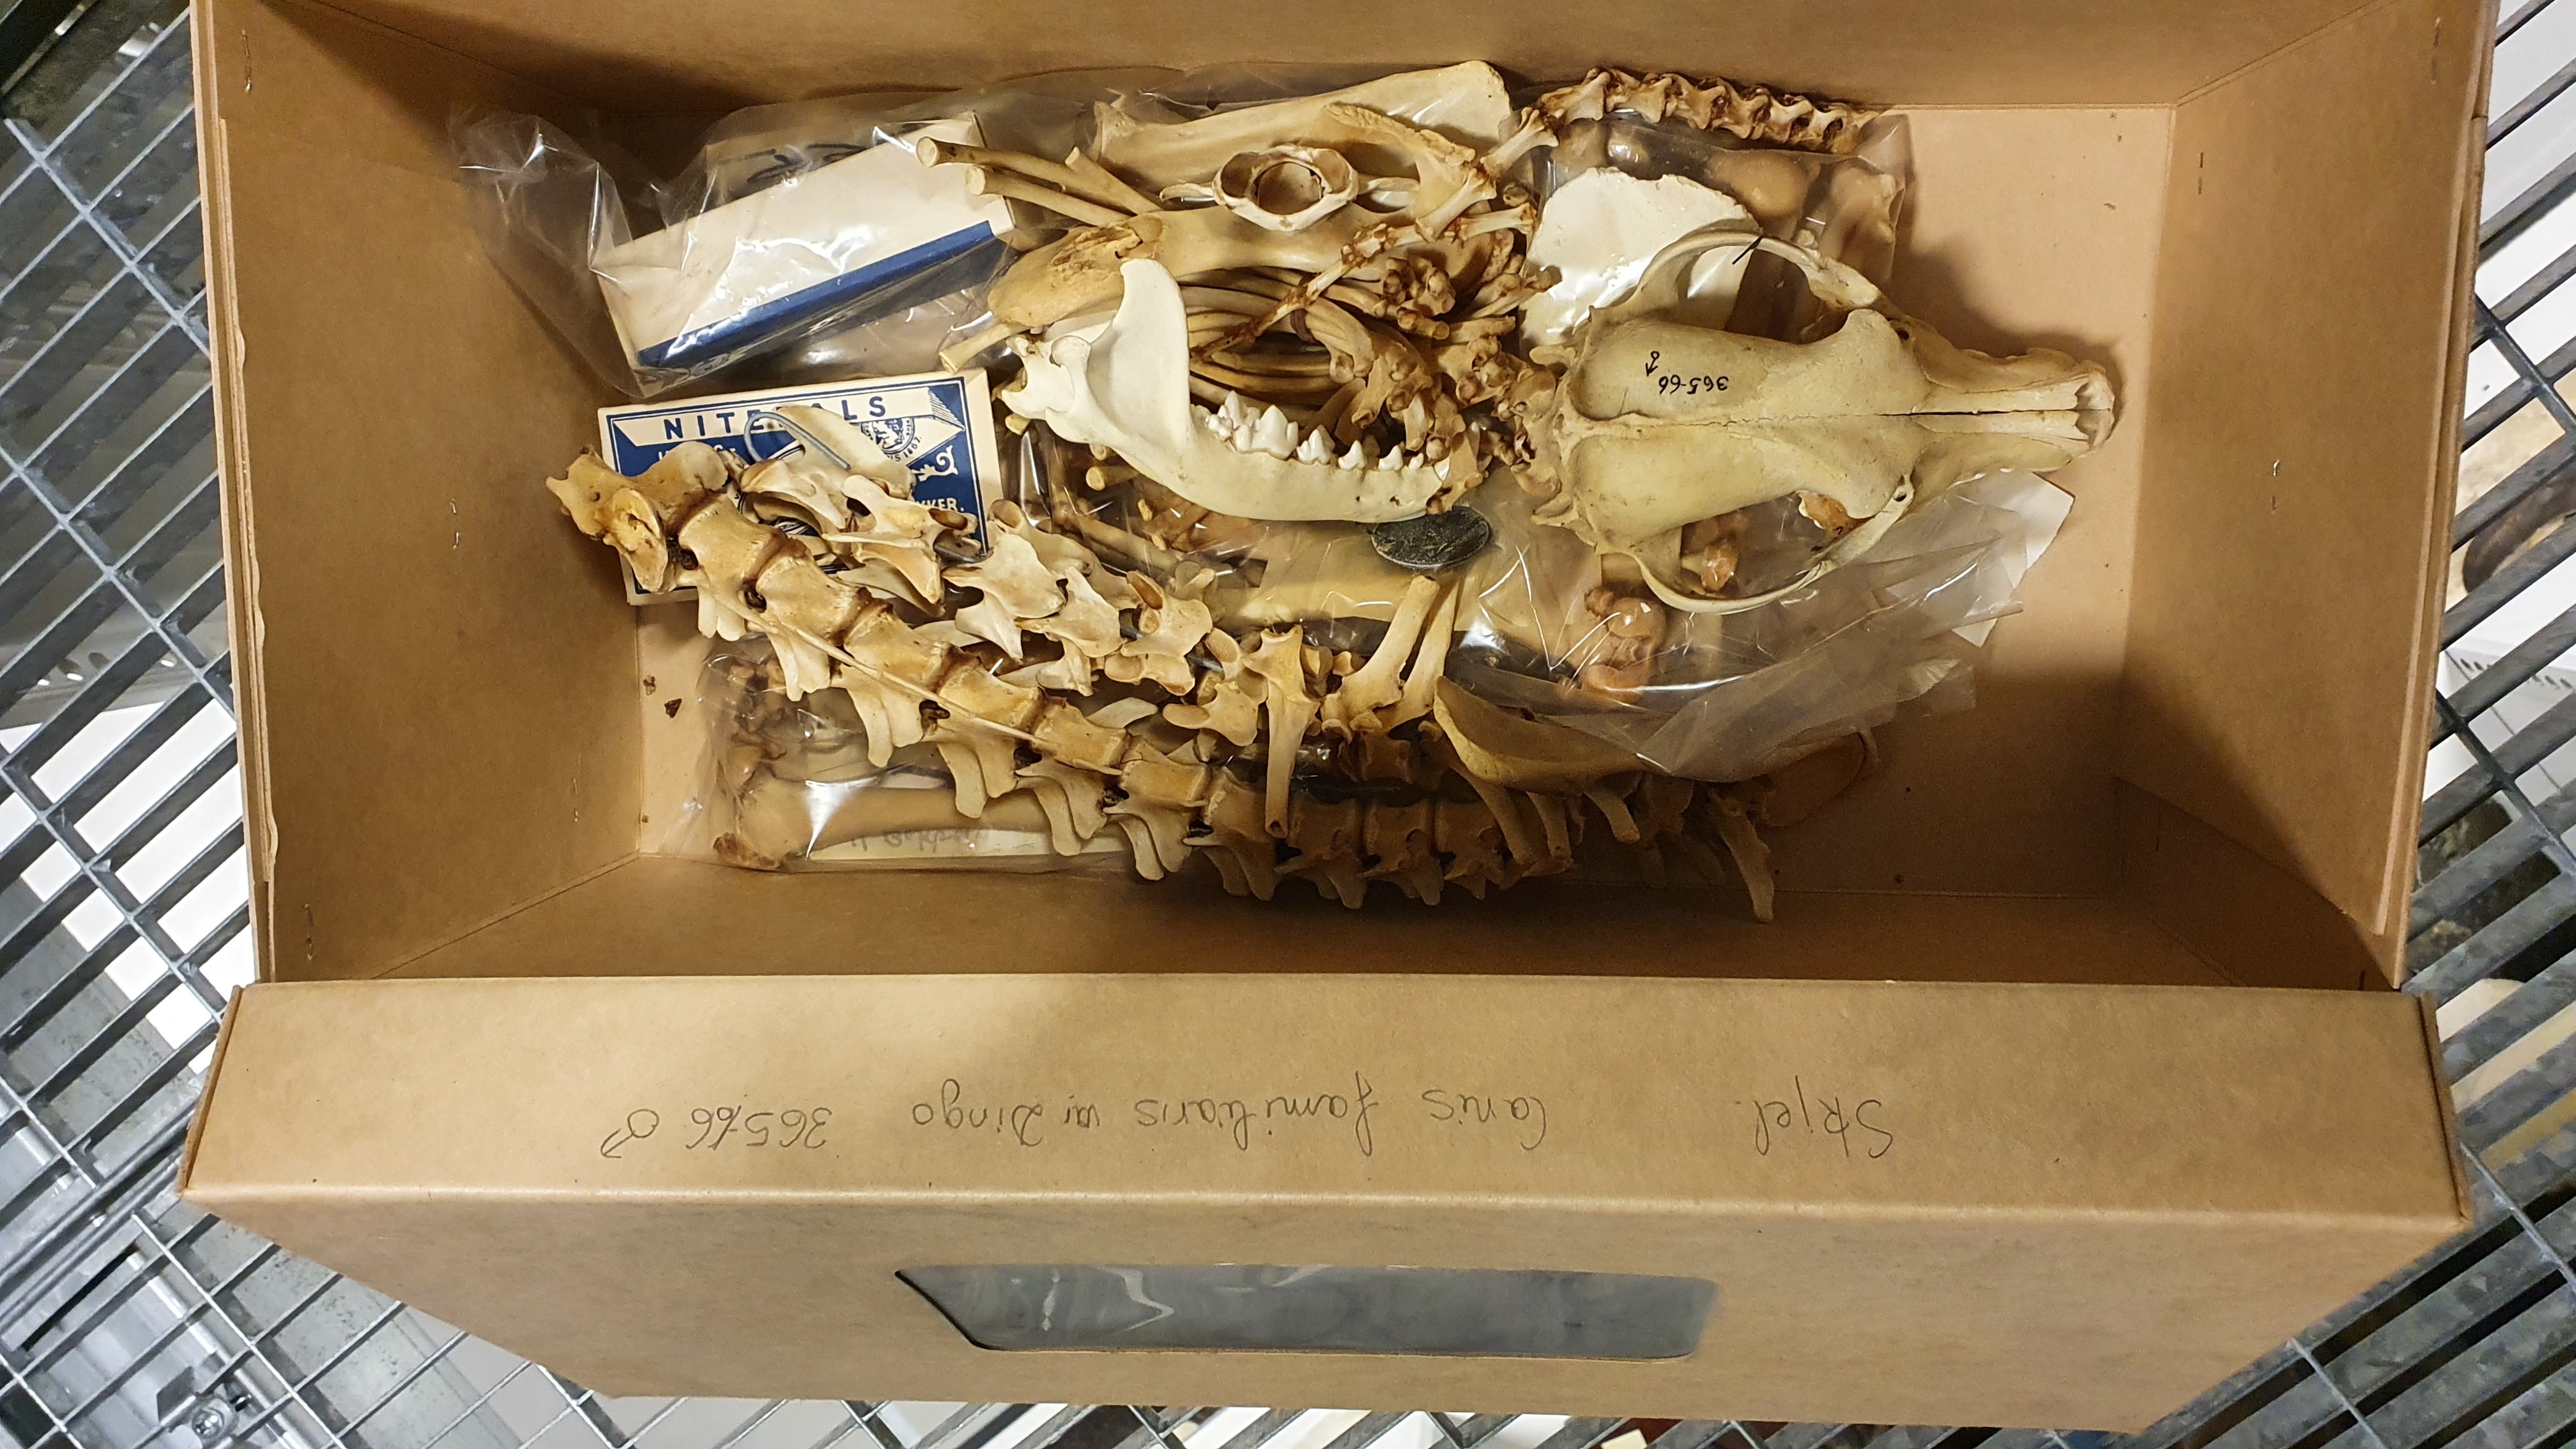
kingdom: Animalia
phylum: Chordata
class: Mammalia
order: Carnivora
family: Canidae
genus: Canis
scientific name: Canis lupus
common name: Gray wolf
